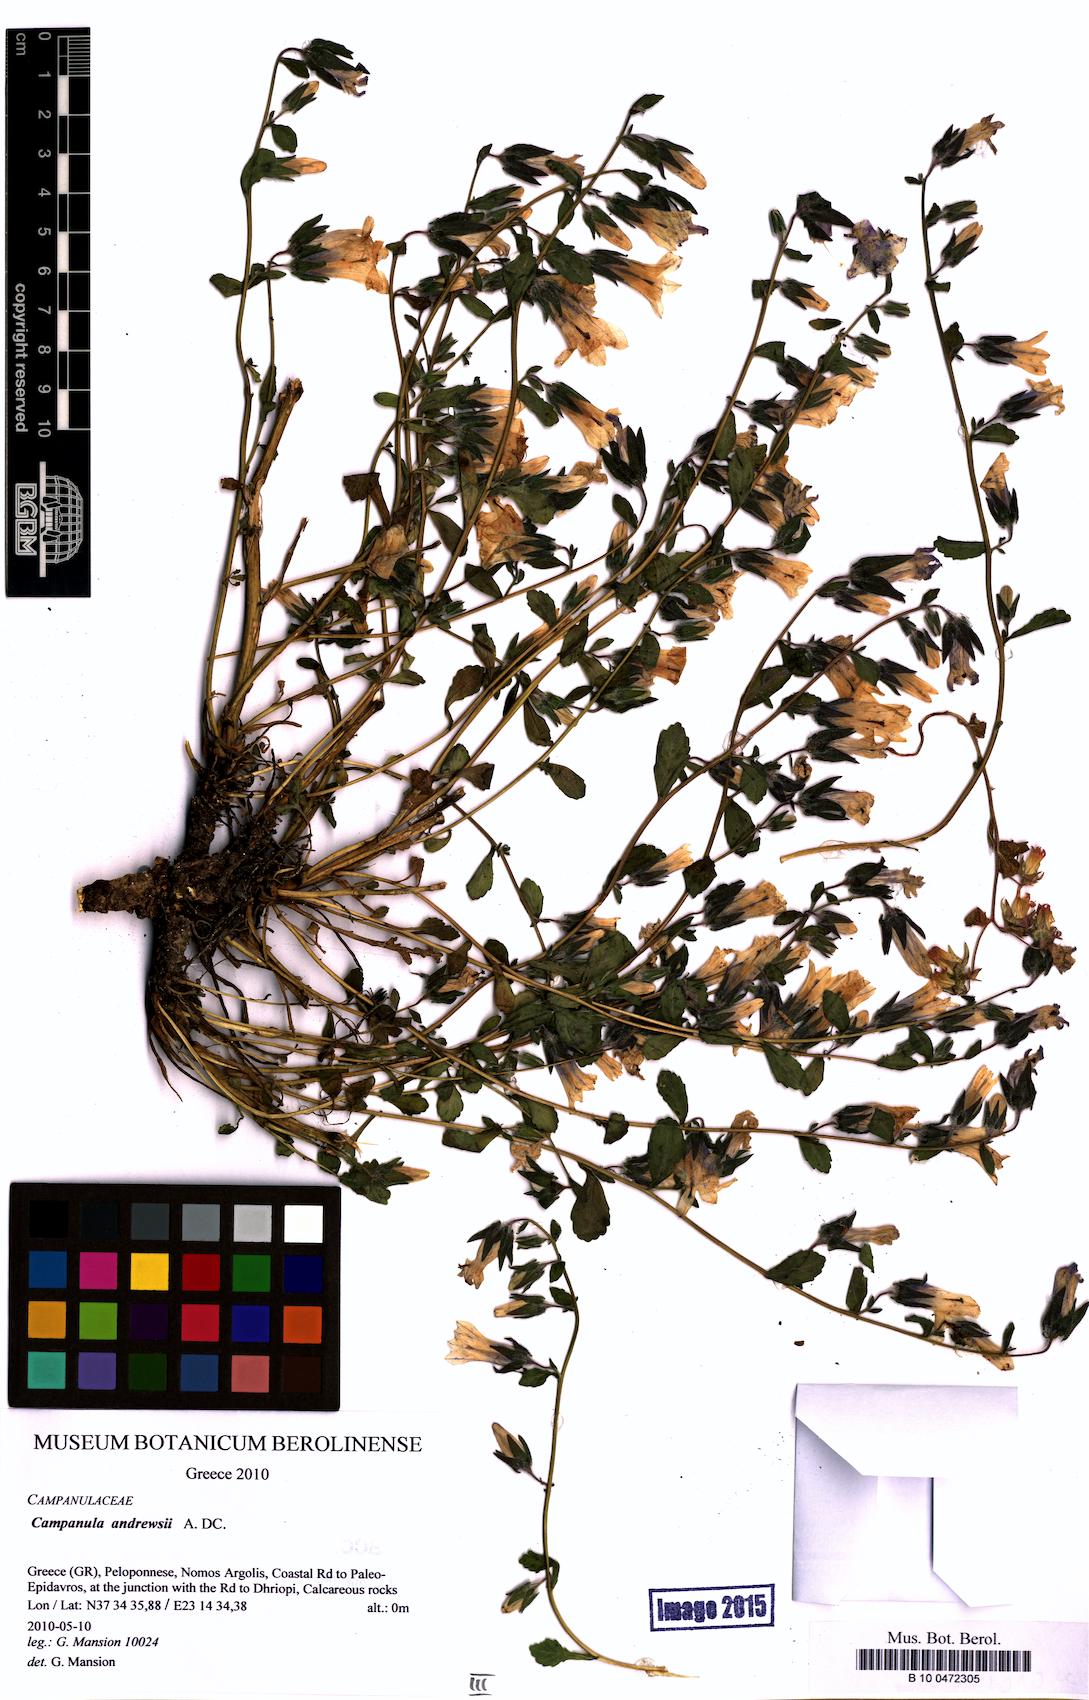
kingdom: Plantae
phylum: Tracheophyta
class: Magnoliopsida
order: Asterales
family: Campanulaceae
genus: Campanula
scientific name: Campanula andrewsii
